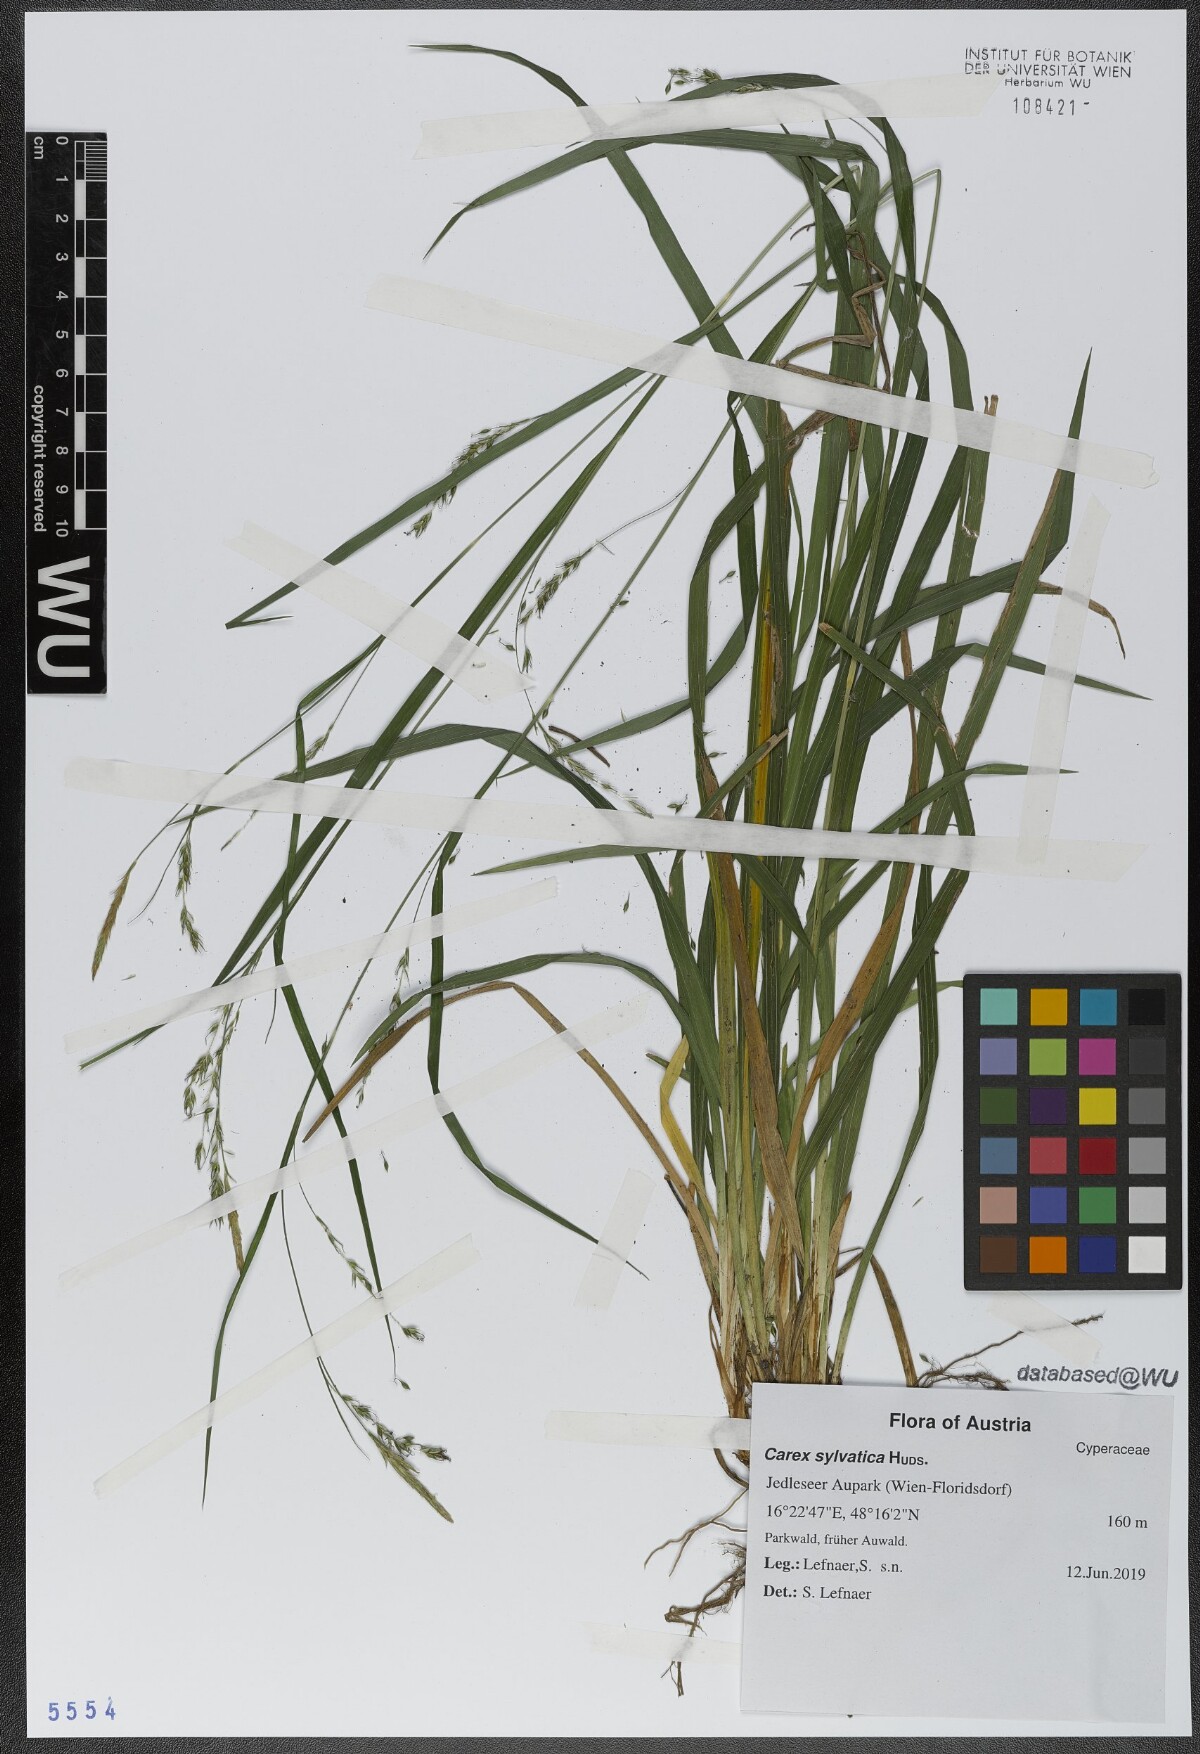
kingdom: Plantae
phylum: Tracheophyta
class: Liliopsida
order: Poales
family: Cyperaceae
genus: Carex
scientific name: Carex sylvatica
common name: Wood-sedge
